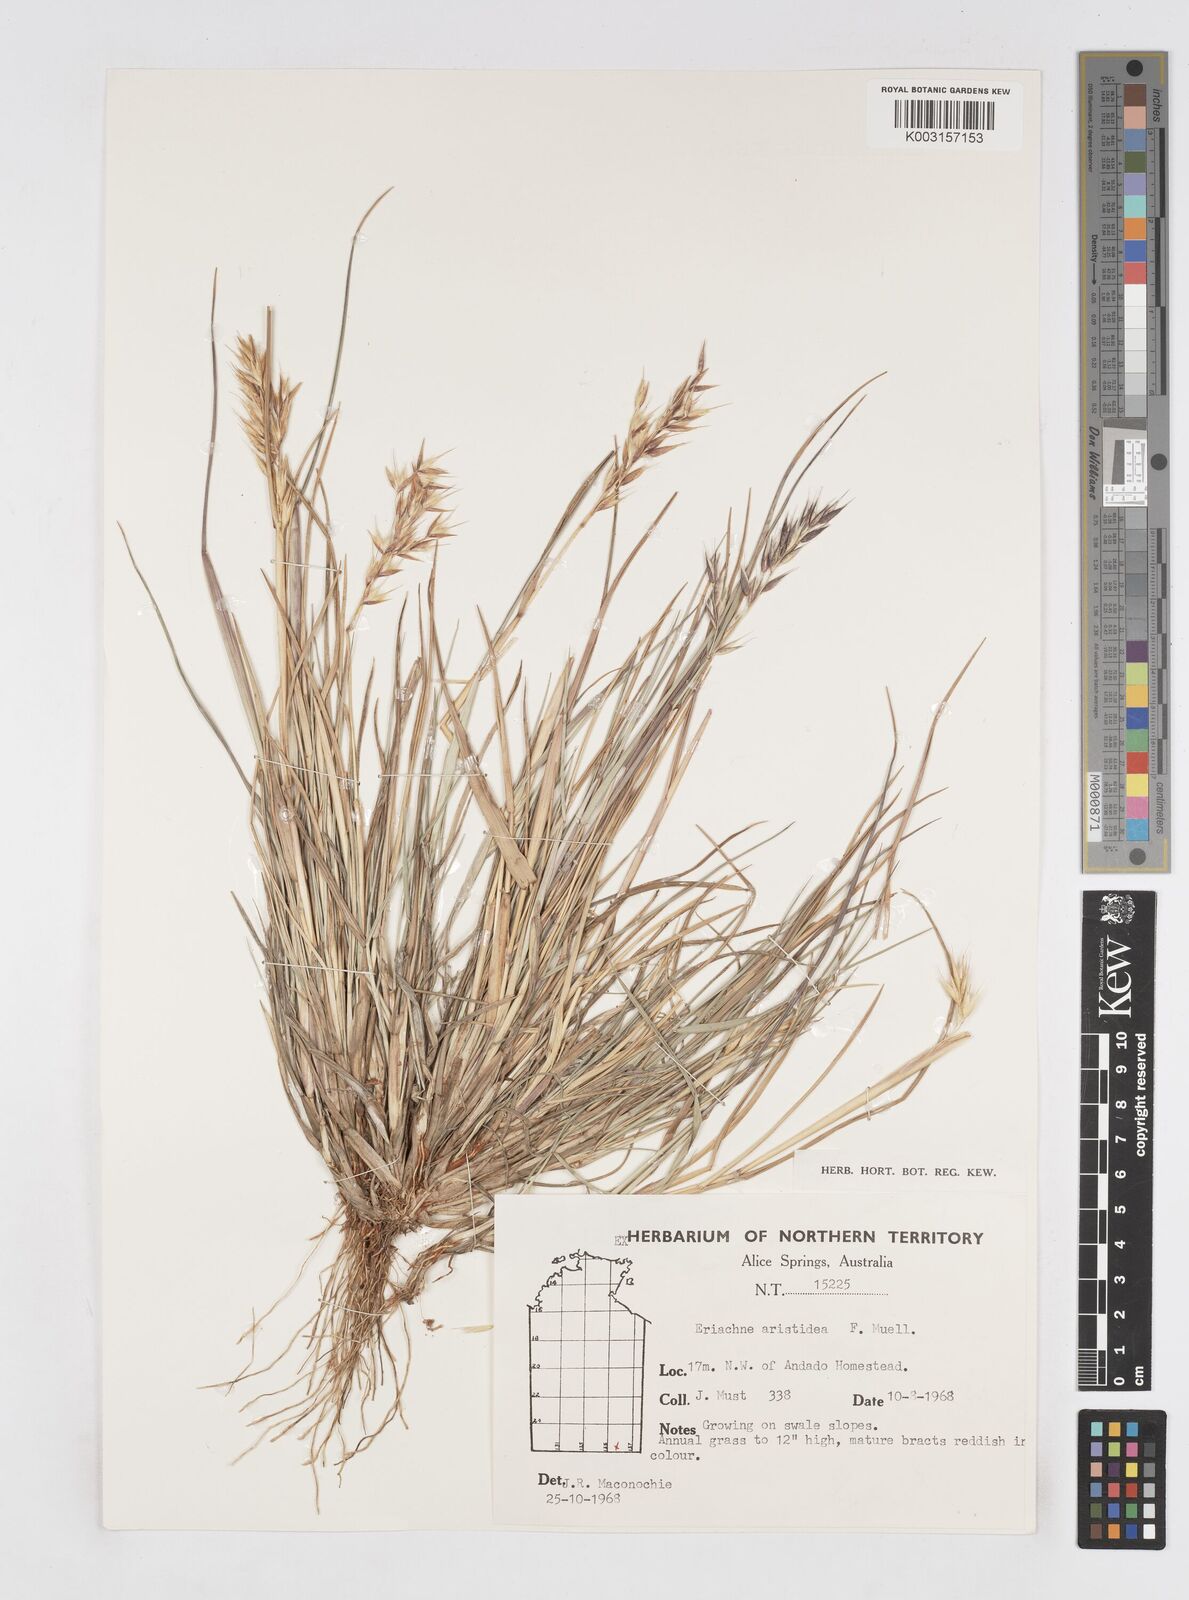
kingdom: Plantae
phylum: Tracheophyta
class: Liliopsida
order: Poales
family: Poaceae
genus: Eriachne
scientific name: Eriachne aristidea
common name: Three-awn wanderrie grass
